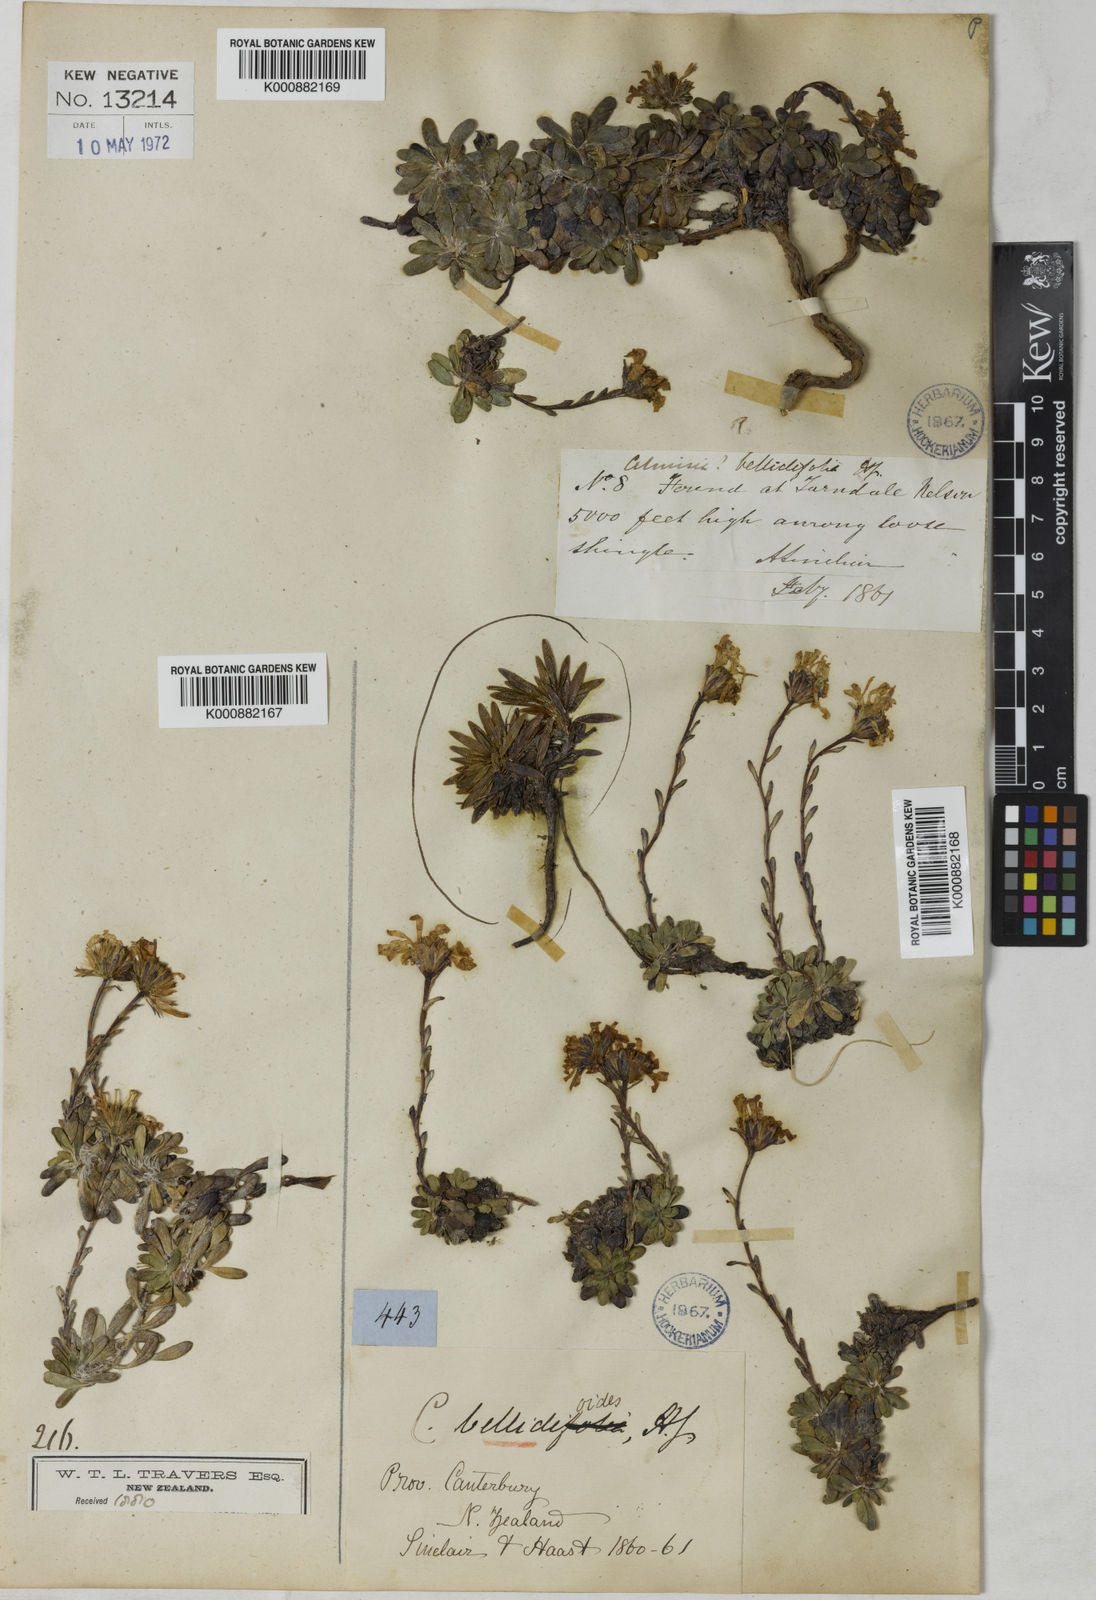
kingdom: Plantae
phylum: Tracheophyta
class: Magnoliopsida
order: Asterales
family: Asteraceae
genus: Celmisia
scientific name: Celmisia bellidioides
